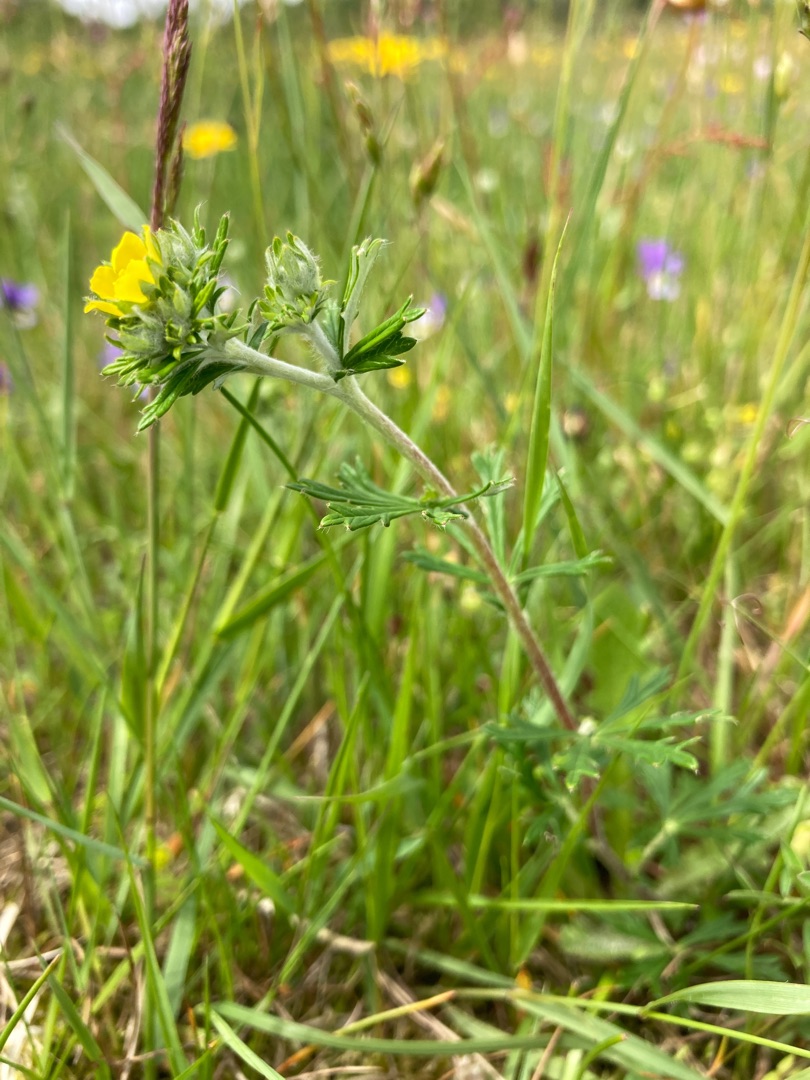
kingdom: Plantae
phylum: Tracheophyta
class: Magnoliopsida
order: Rosales
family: Rosaceae
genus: Potentilla
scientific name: Potentilla argentea
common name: Sølv-potentil
